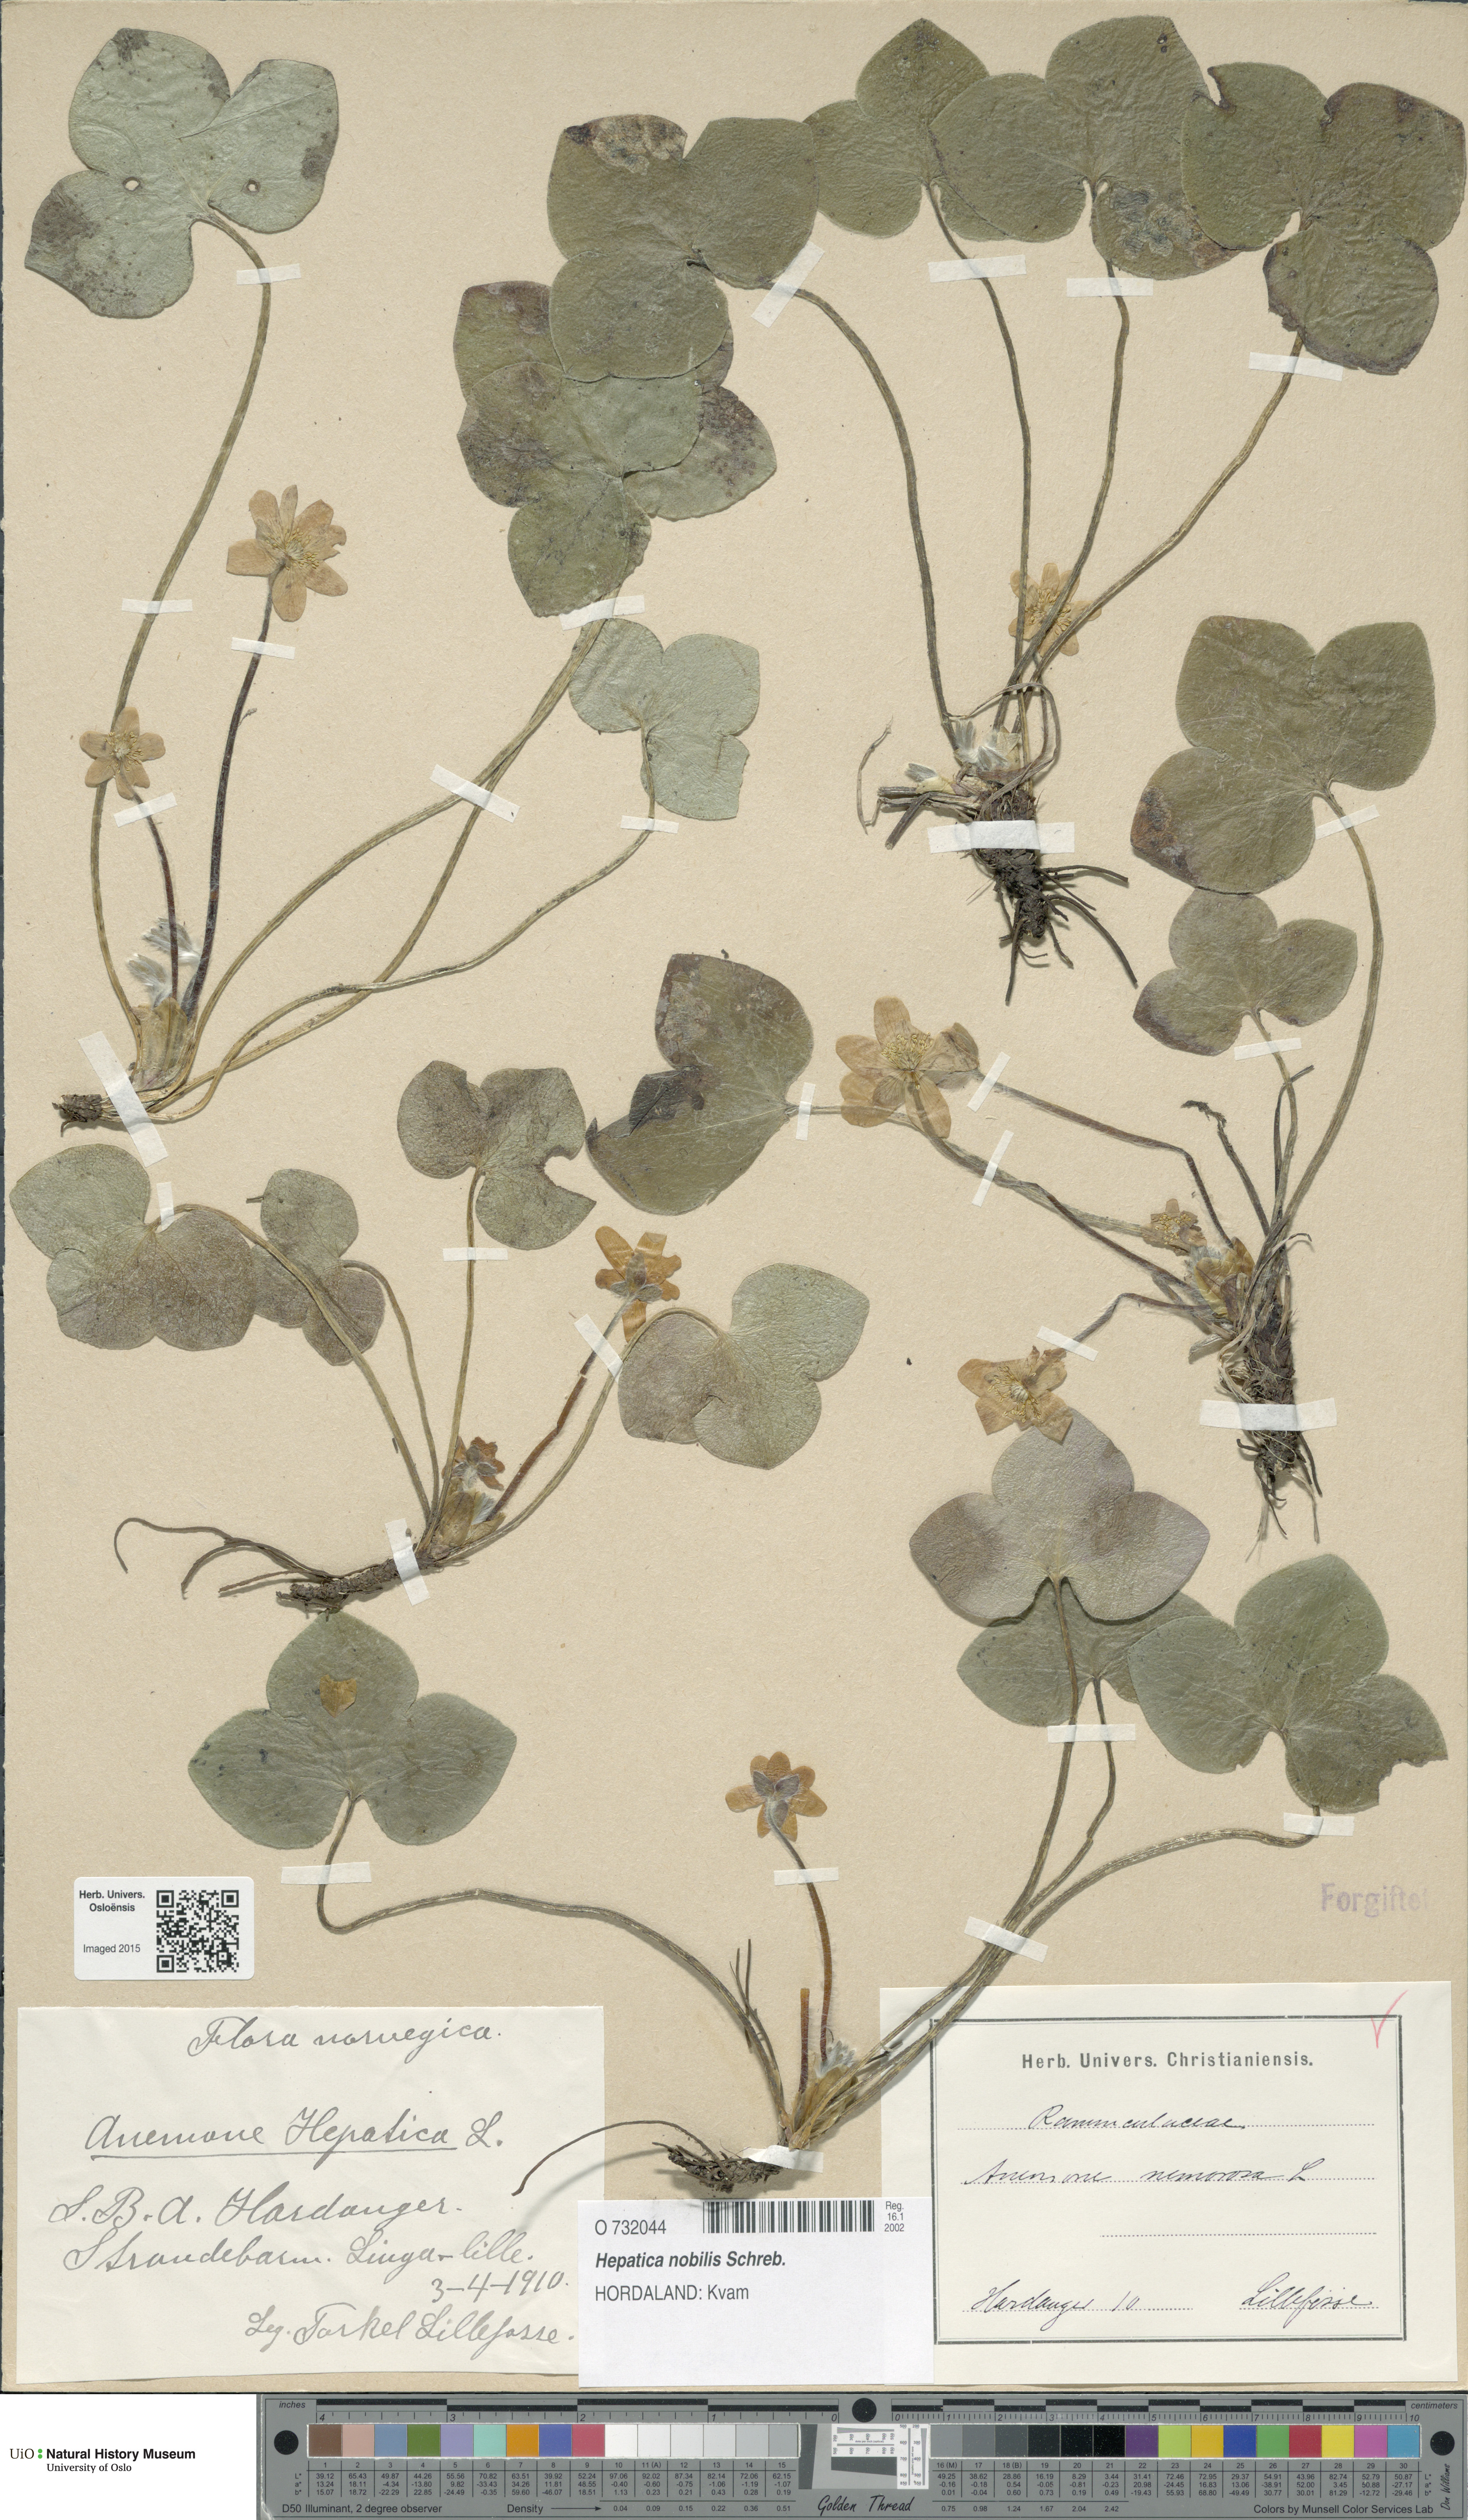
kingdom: Plantae
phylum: Tracheophyta
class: Magnoliopsida
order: Ranunculales
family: Ranunculaceae
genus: Hepatica
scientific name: Hepatica nobilis
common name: Liverleaf
